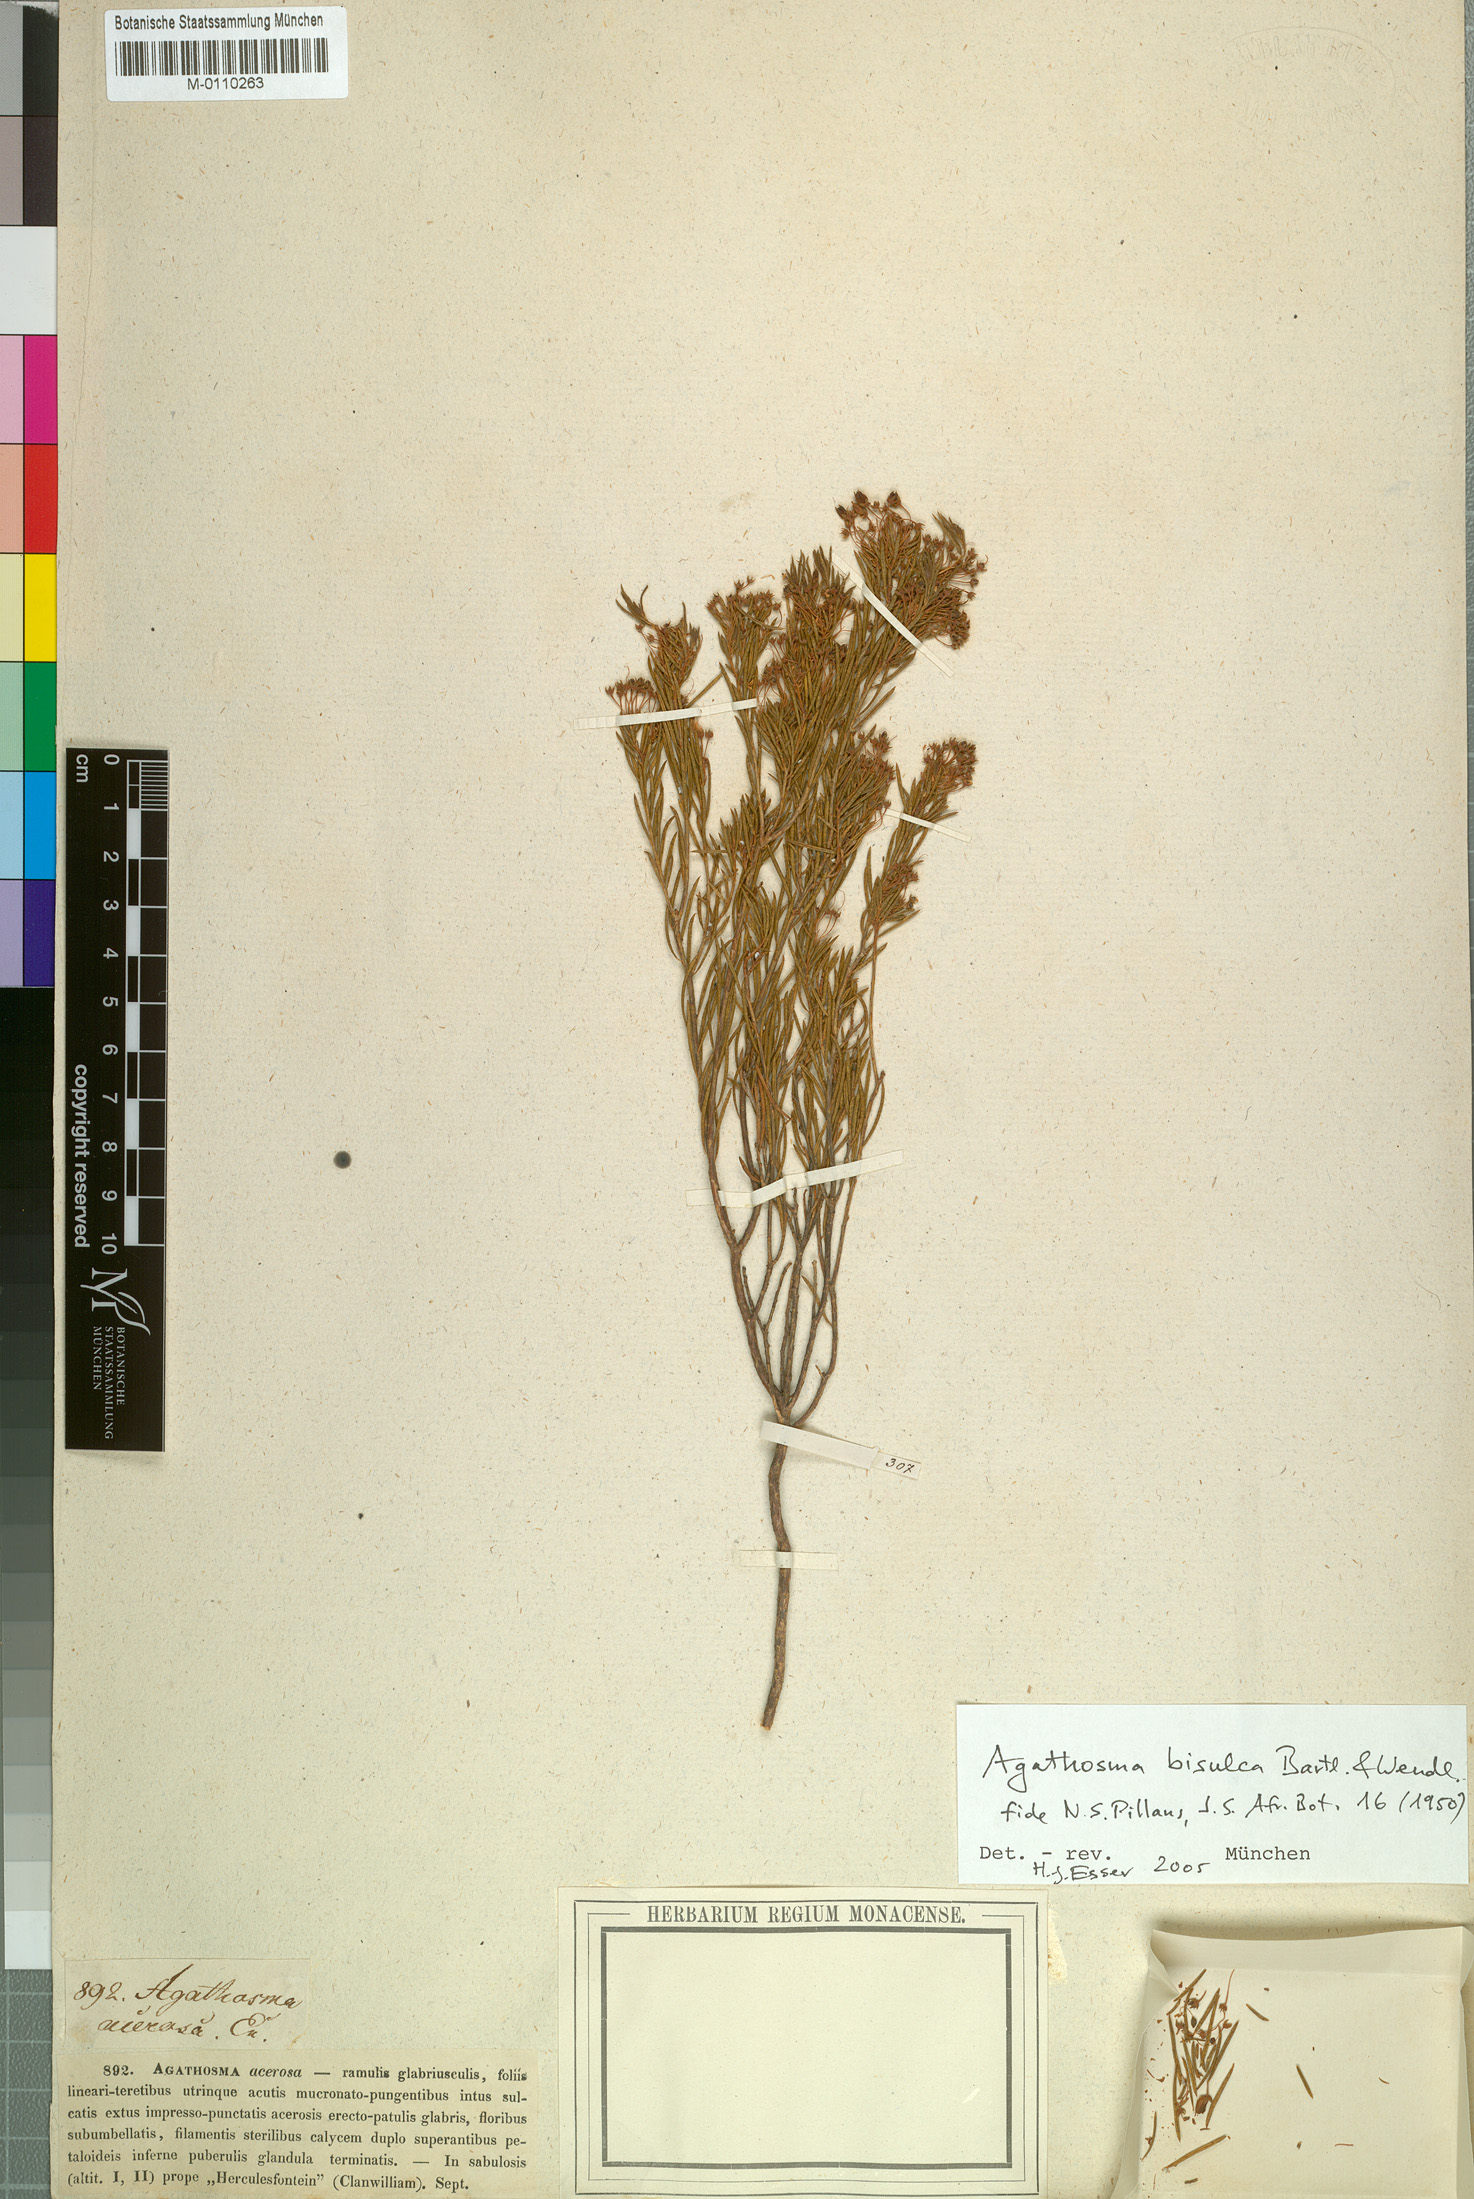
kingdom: Plantae
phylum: Tracheophyta
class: Magnoliopsida
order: Sapindales
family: Rutaceae
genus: Agathosma
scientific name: Agathosma bisulca
